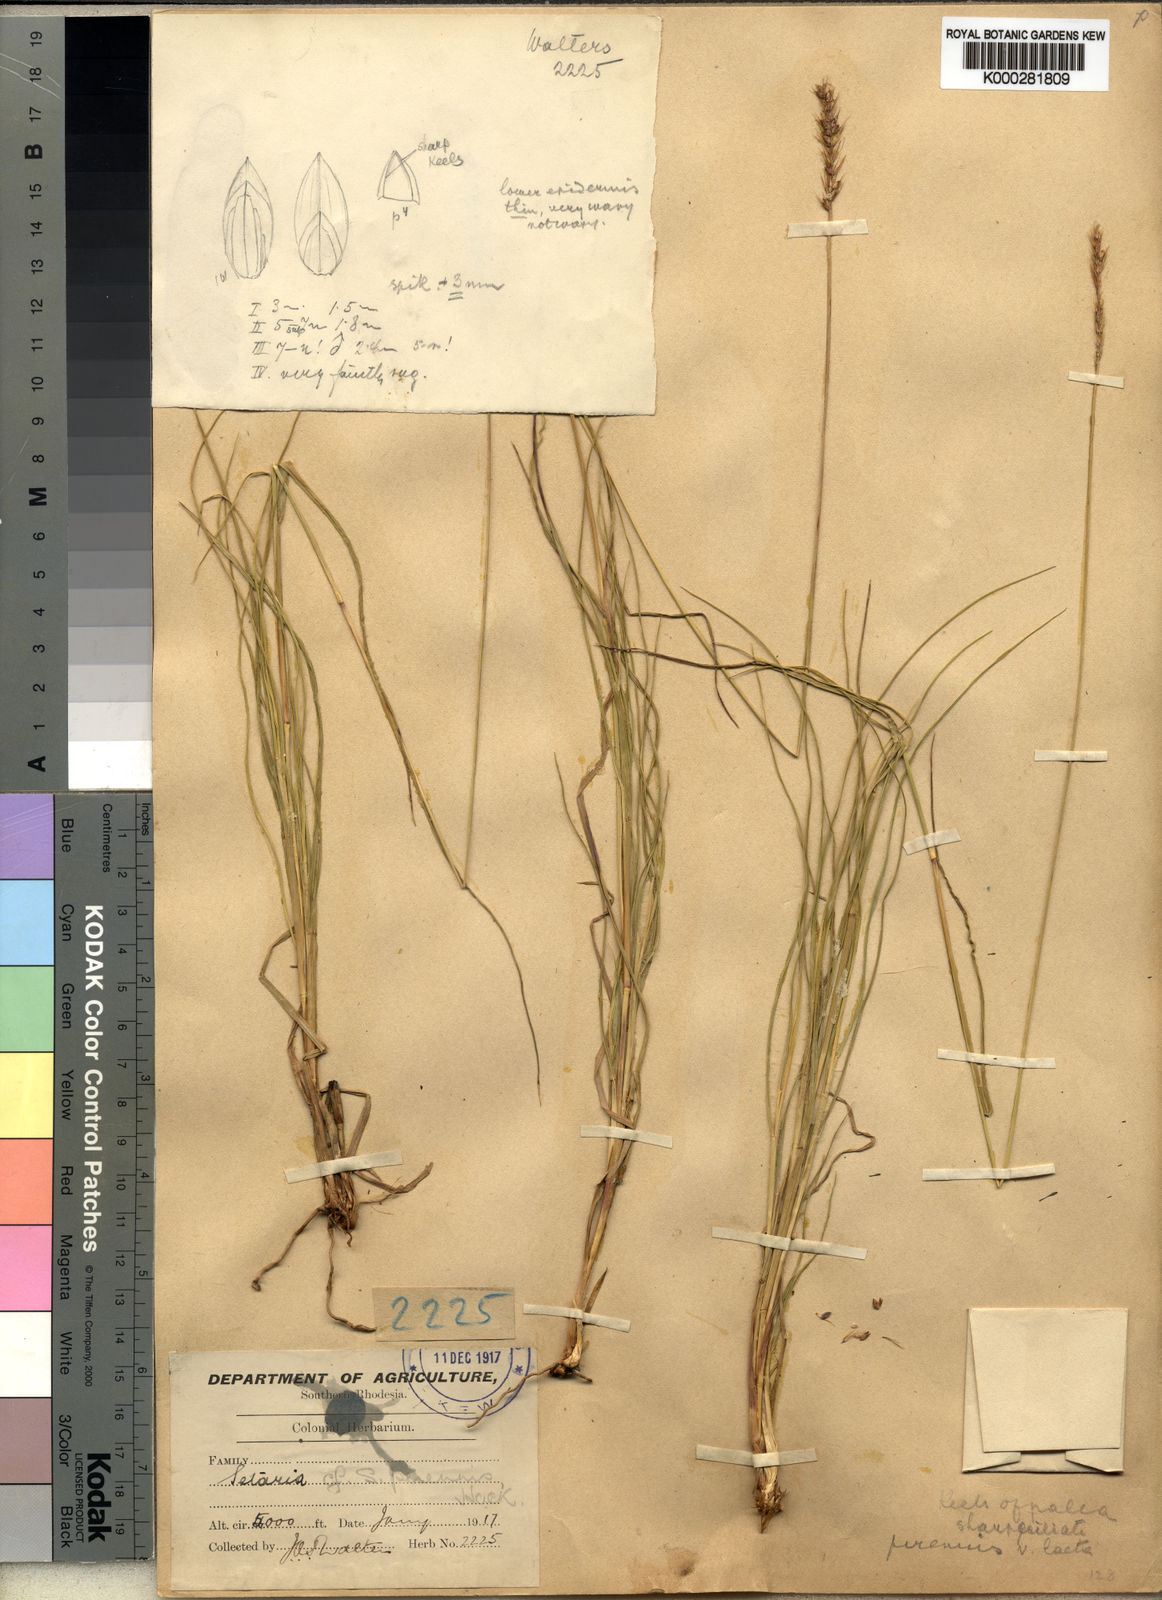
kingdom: Plantae
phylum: Tracheophyta
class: Liliopsida
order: Poales
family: Poaceae
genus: Setaria
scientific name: Setaria sphacelata
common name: African bristlegrass
